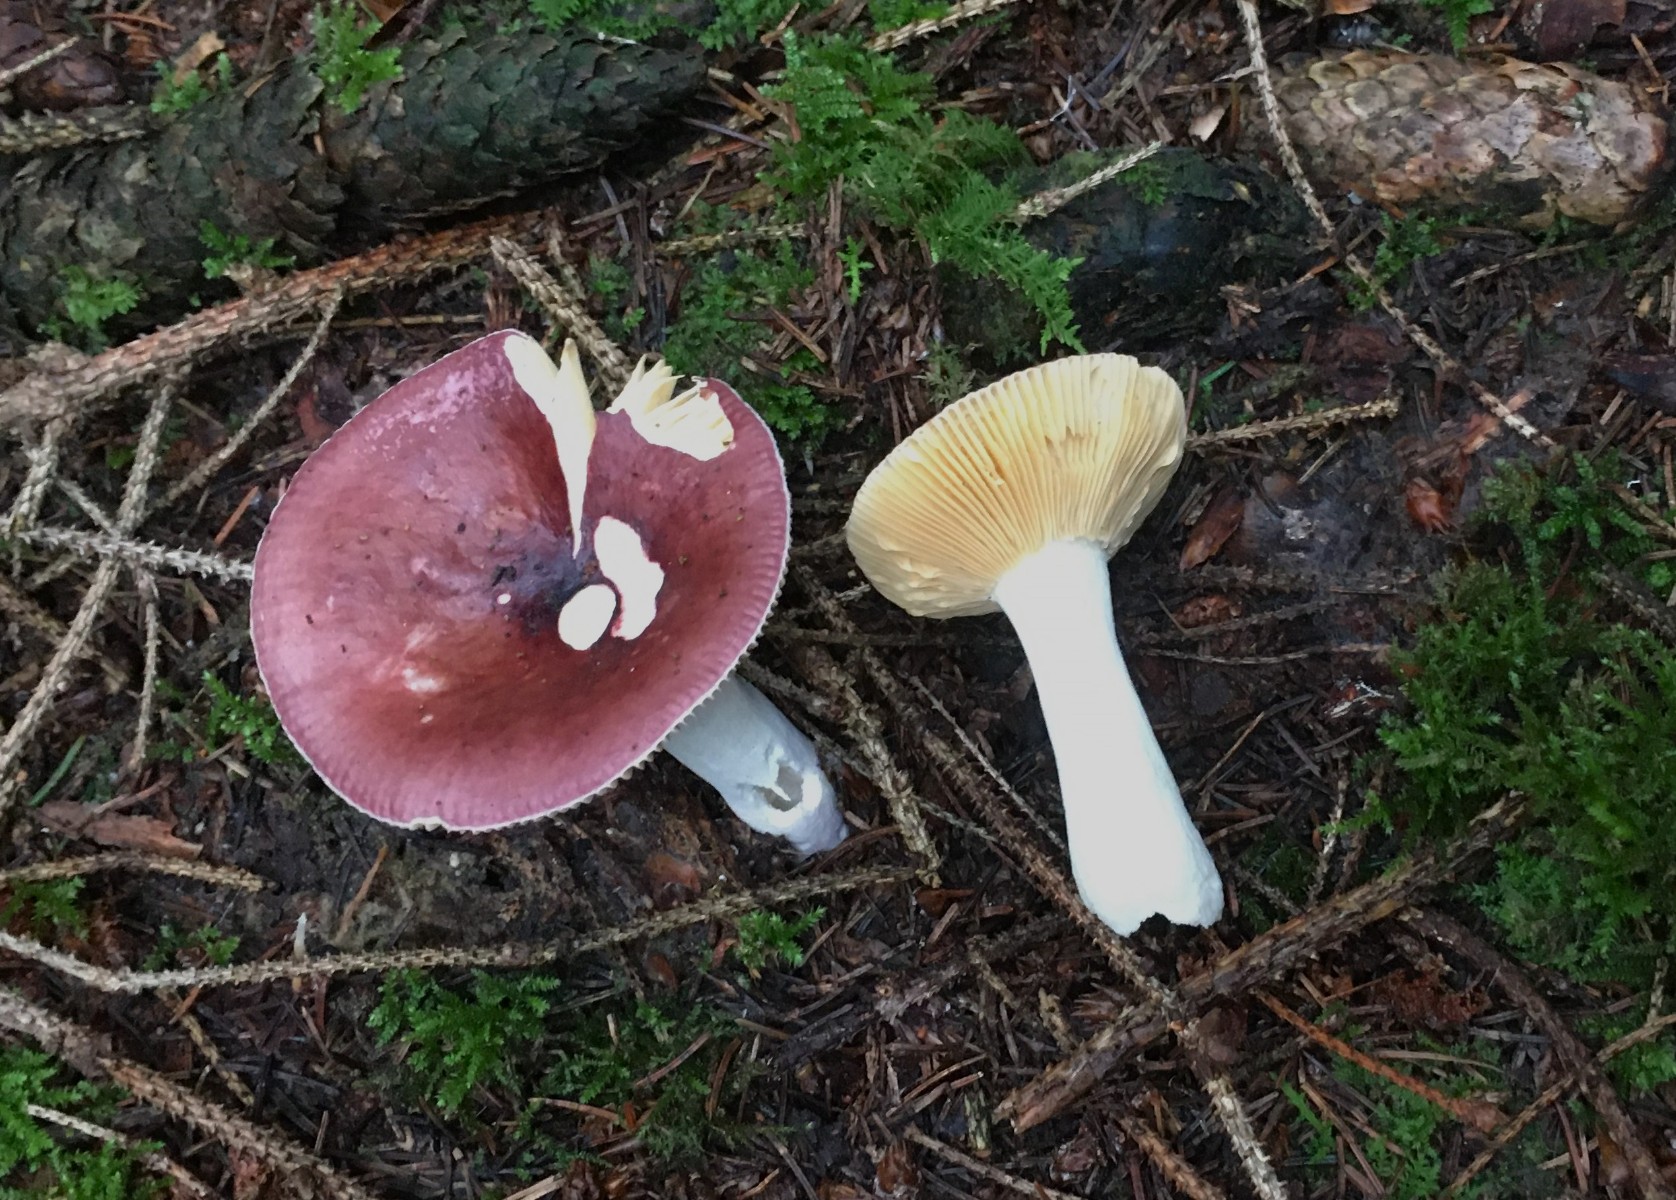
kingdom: Fungi
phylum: Basidiomycota
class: Agaricomycetes
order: Russulales
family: Russulaceae
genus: Russula
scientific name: Russula firmula
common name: nåleskarp skørhat
